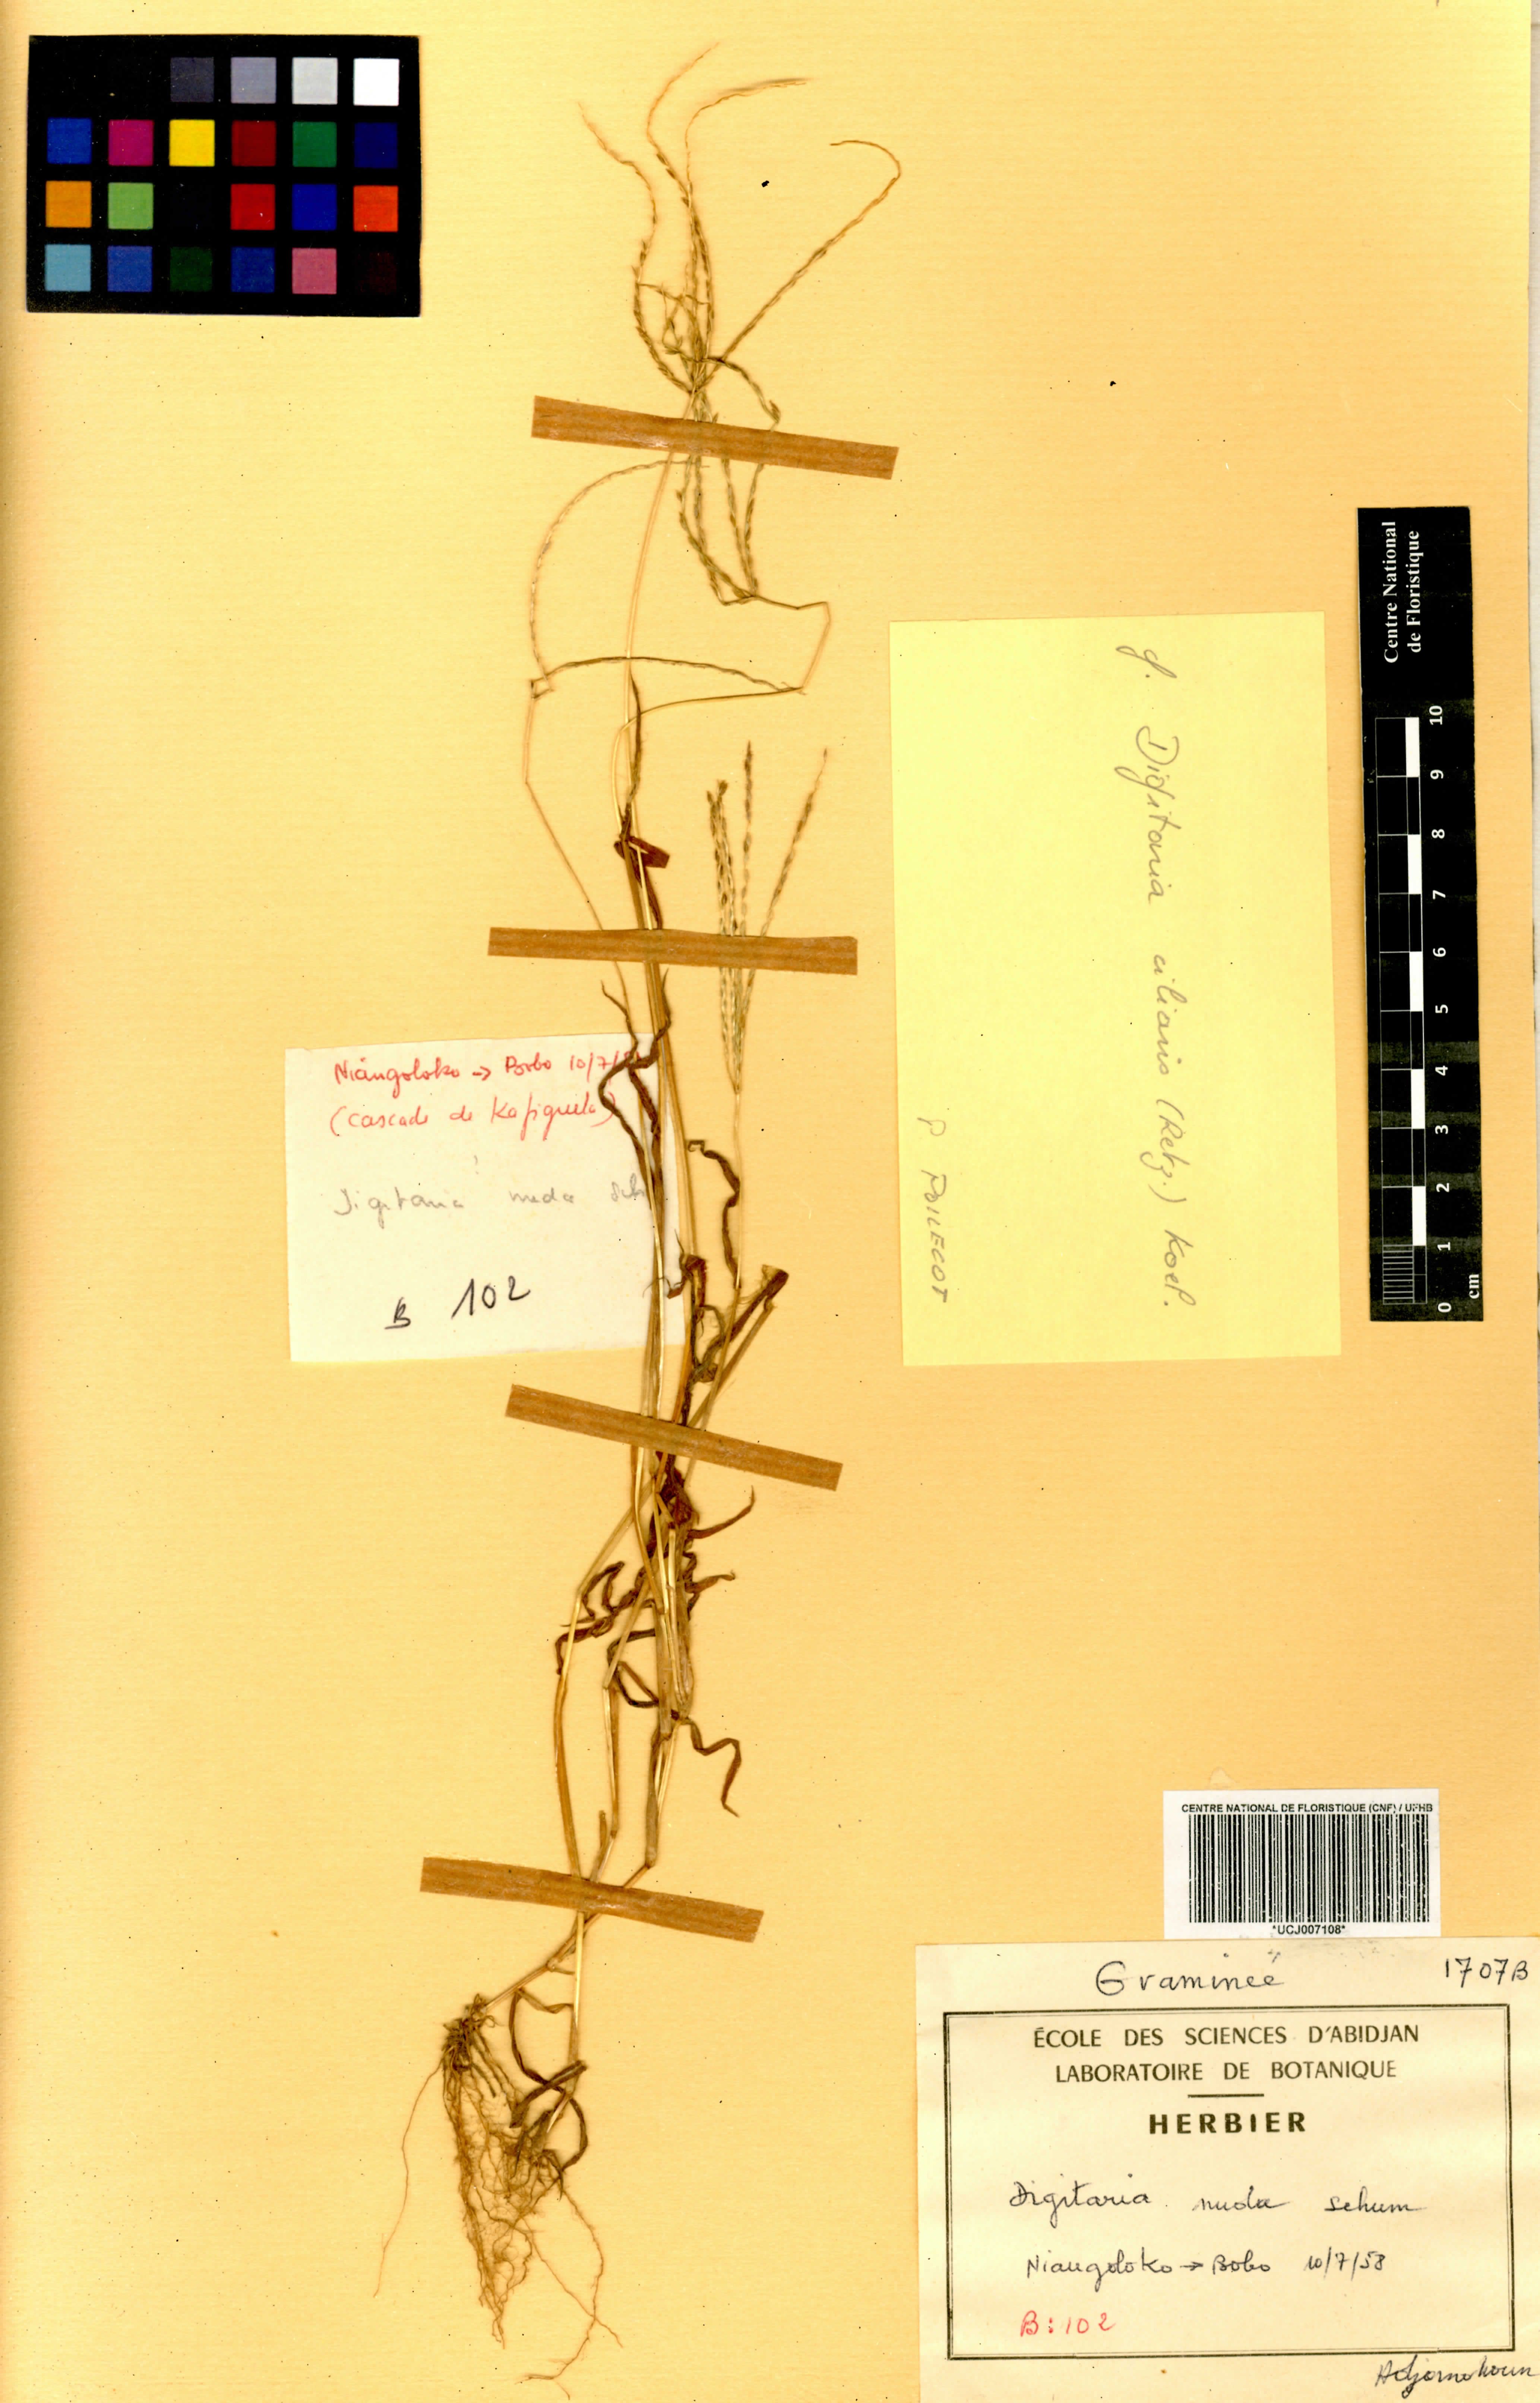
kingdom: Plantae
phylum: Tracheophyta
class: Liliopsida
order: Poales
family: Poaceae
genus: Digitaria
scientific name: Digitaria nuda
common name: Naked crabgrass
